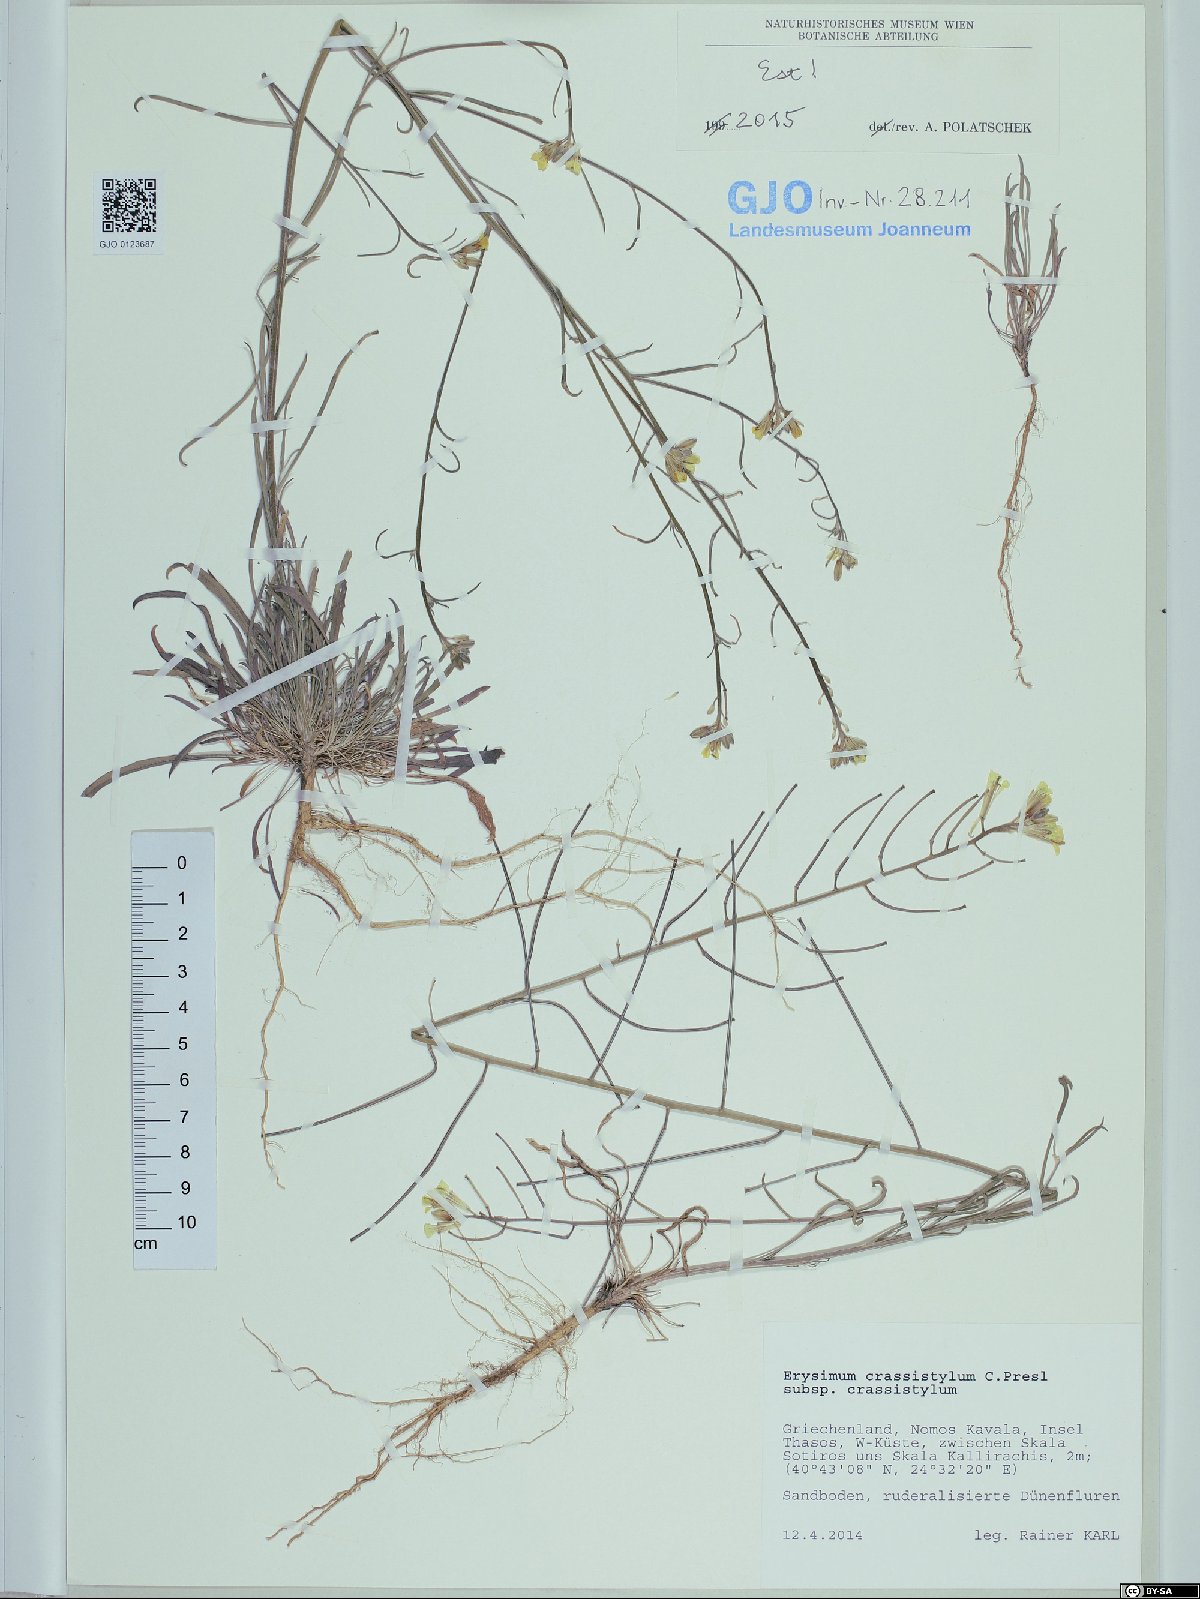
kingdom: Plantae
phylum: Tracheophyta
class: Magnoliopsida
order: Brassicales
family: Brassicaceae
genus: Erysimum
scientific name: Erysimum crassistylum
